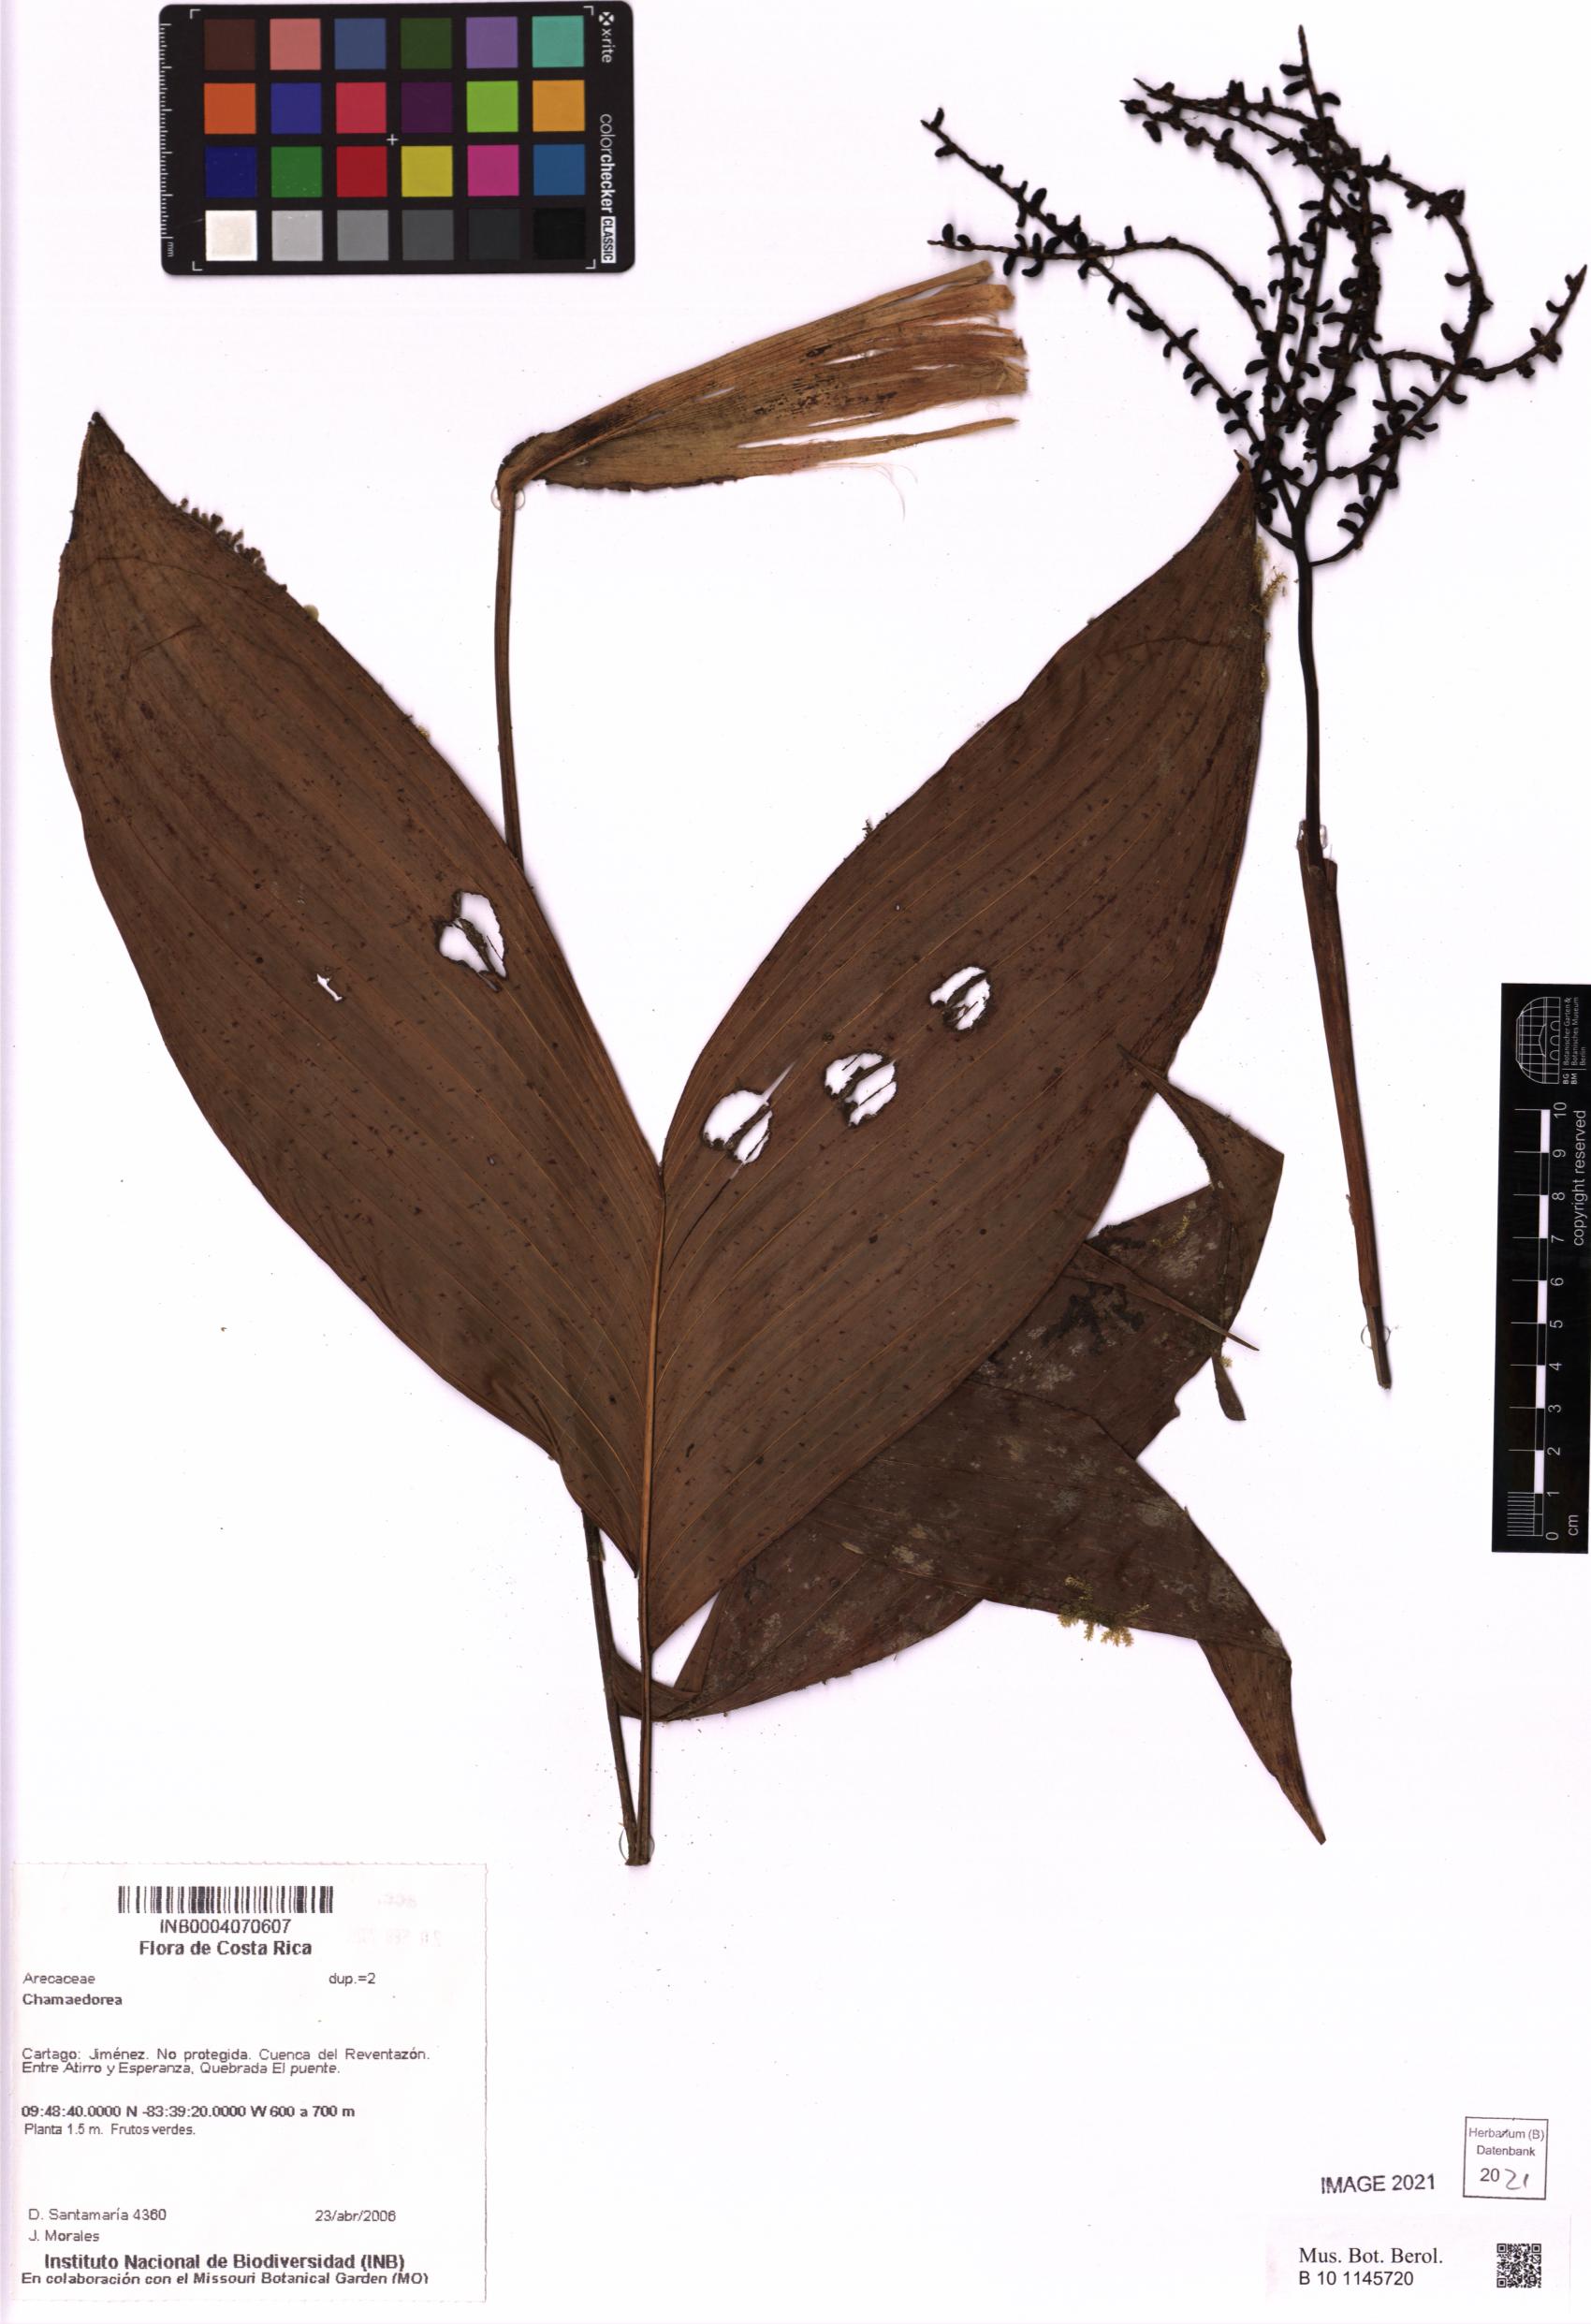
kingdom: Plantae
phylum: Tracheophyta
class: Liliopsida
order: Arecales
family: Arecaceae
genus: Chamaedorea
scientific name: Chamaedorea
